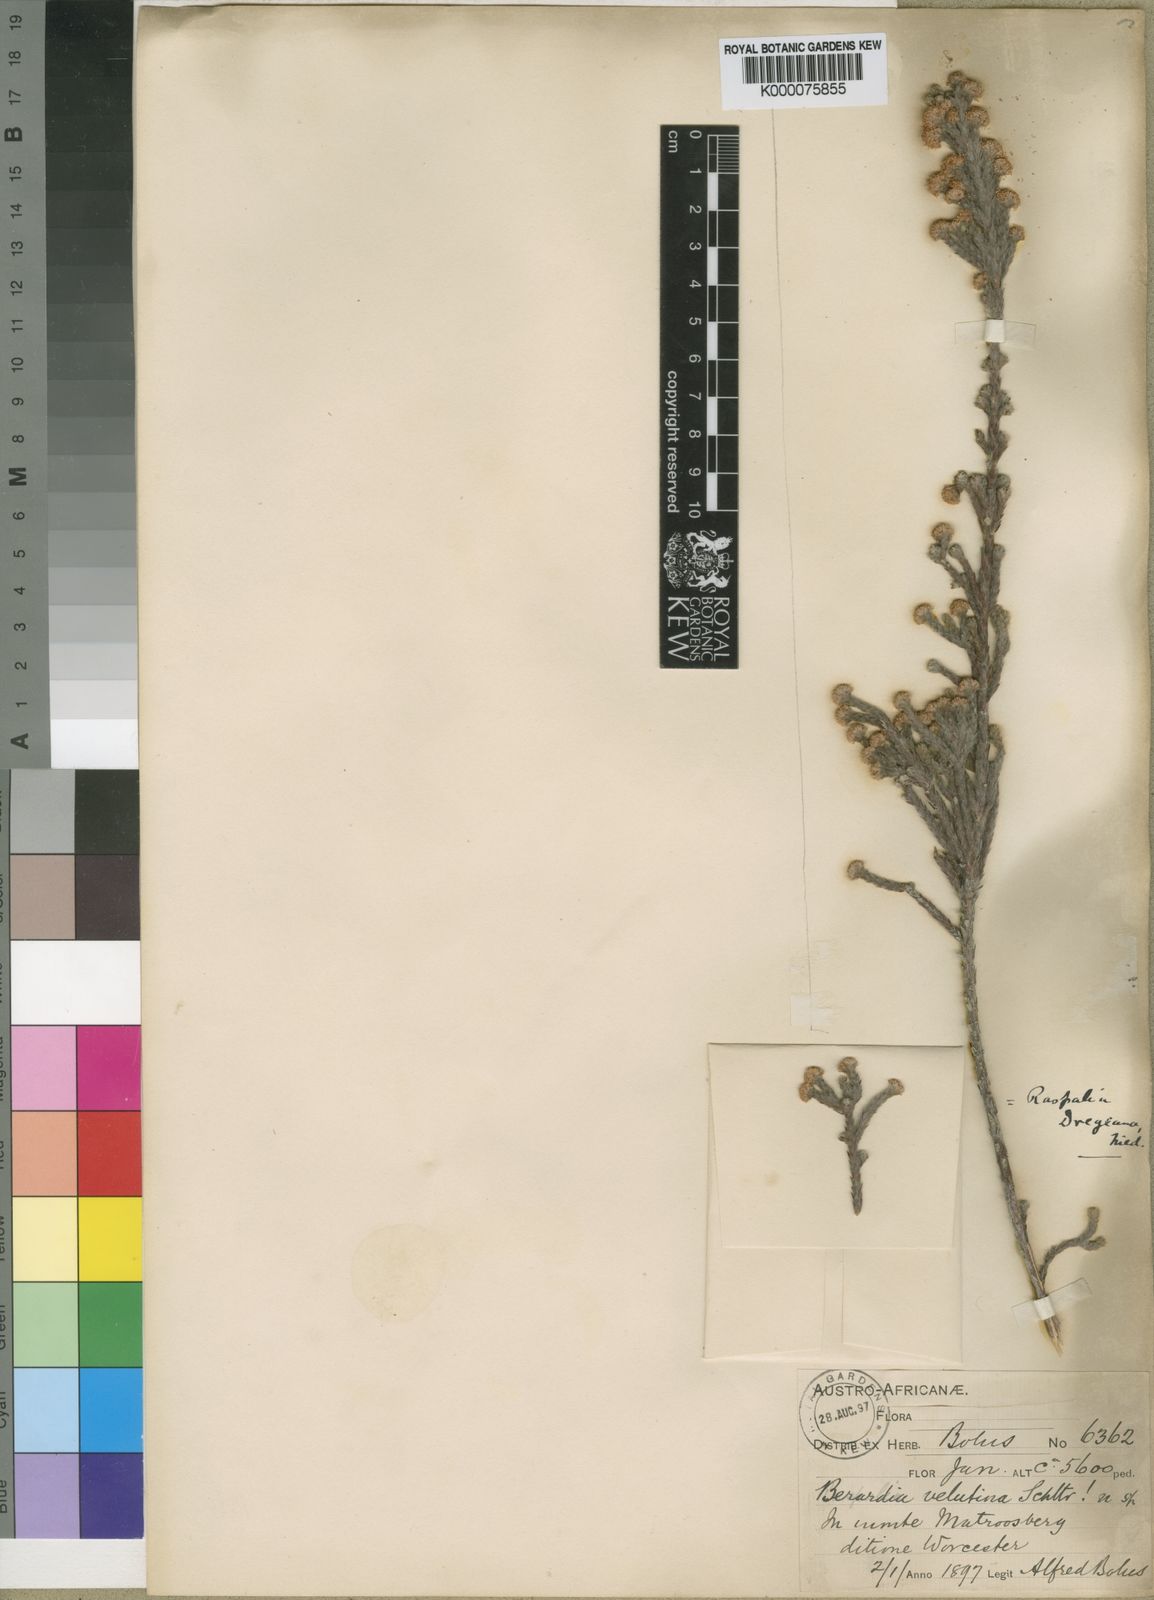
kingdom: Plantae
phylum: Tracheophyta
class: Magnoliopsida
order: Bruniales
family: Bruniaceae
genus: Brunia
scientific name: Brunia dregeana
